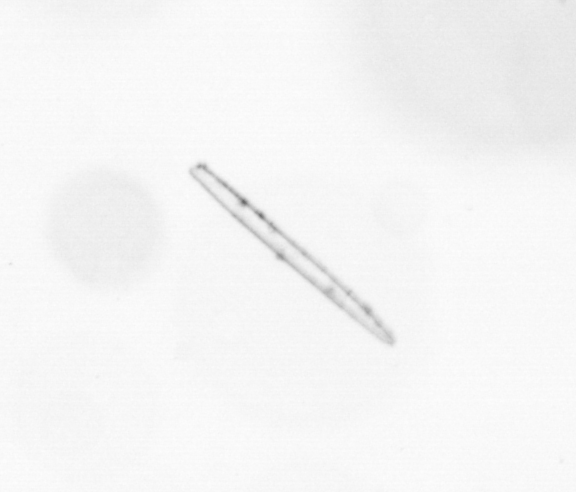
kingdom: Chromista
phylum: Ochrophyta
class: Bacillariophyceae
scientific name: Bacillariophyceae
